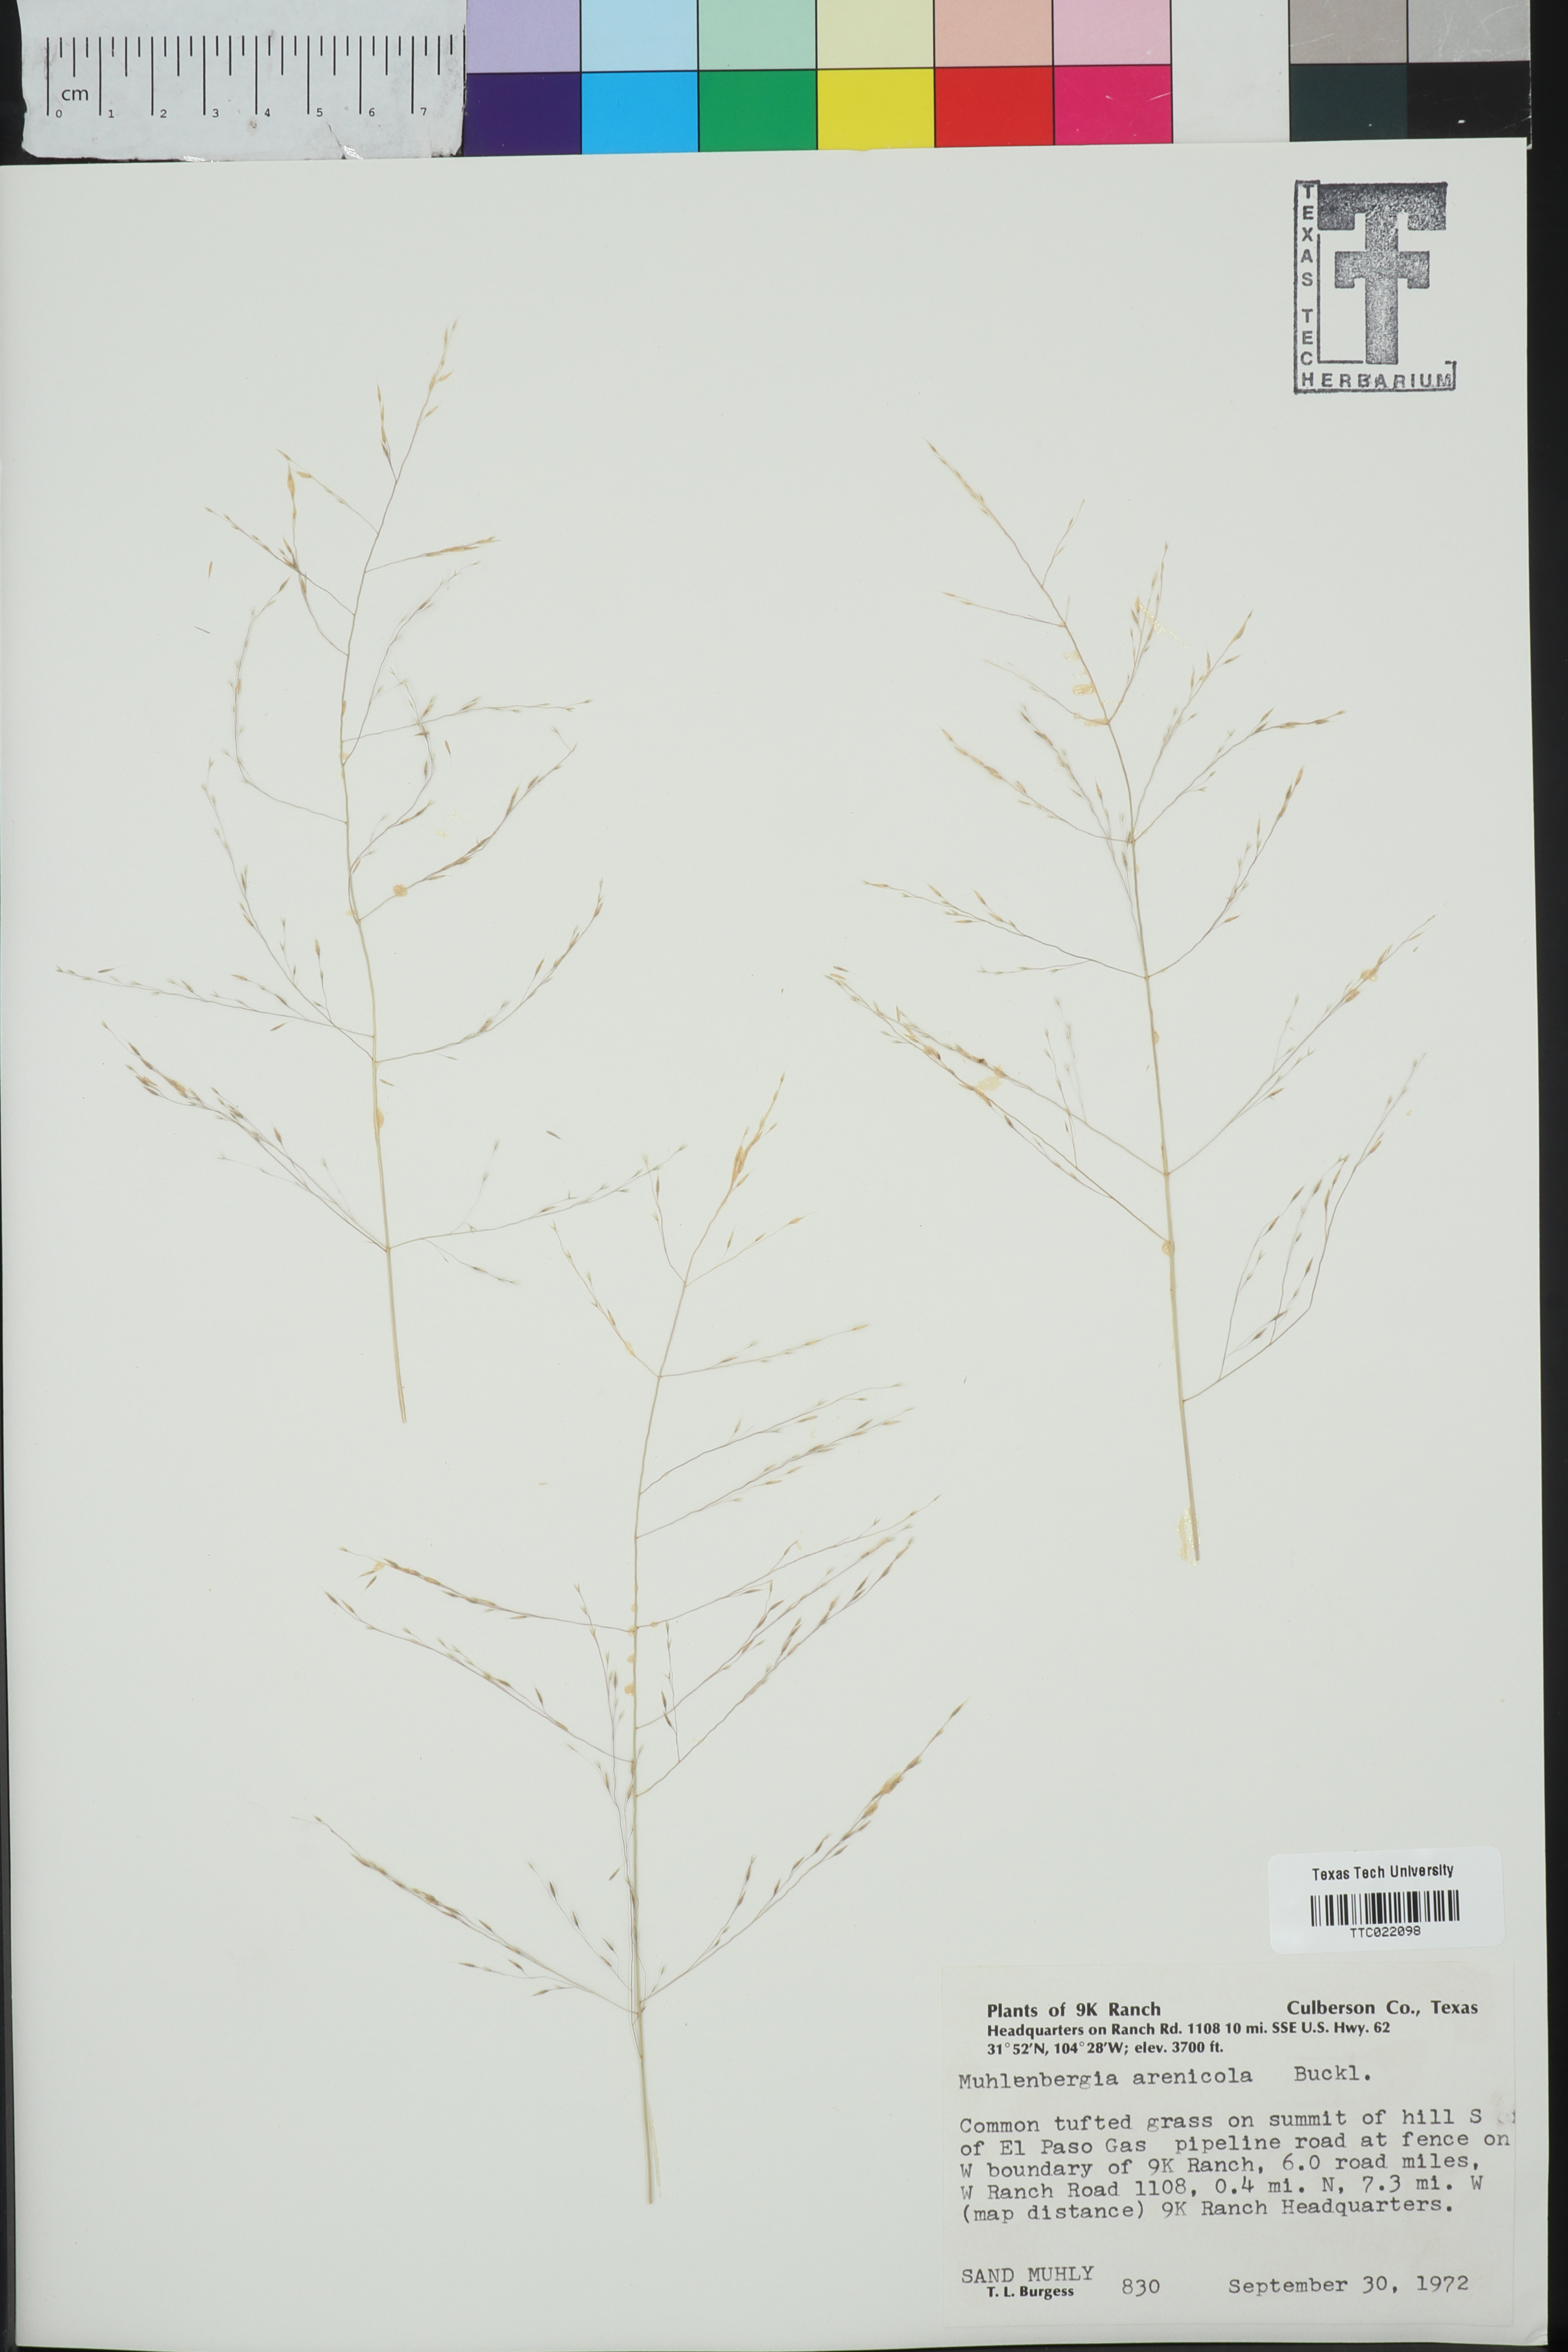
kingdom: Plantae
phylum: Tracheophyta
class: Liliopsida
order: Poales
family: Poaceae
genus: Muhlenbergia
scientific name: Muhlenbergia arenicola
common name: Sand muhly
